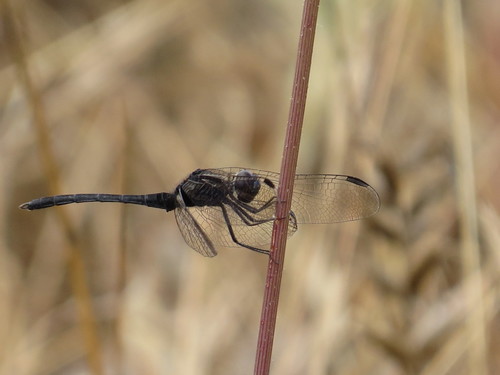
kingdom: Animalia
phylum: Arthropoda
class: Insecta
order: Odonata
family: Libellulidae
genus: Diplacodes
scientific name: Diplacodes lefebvrii
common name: Black percher
